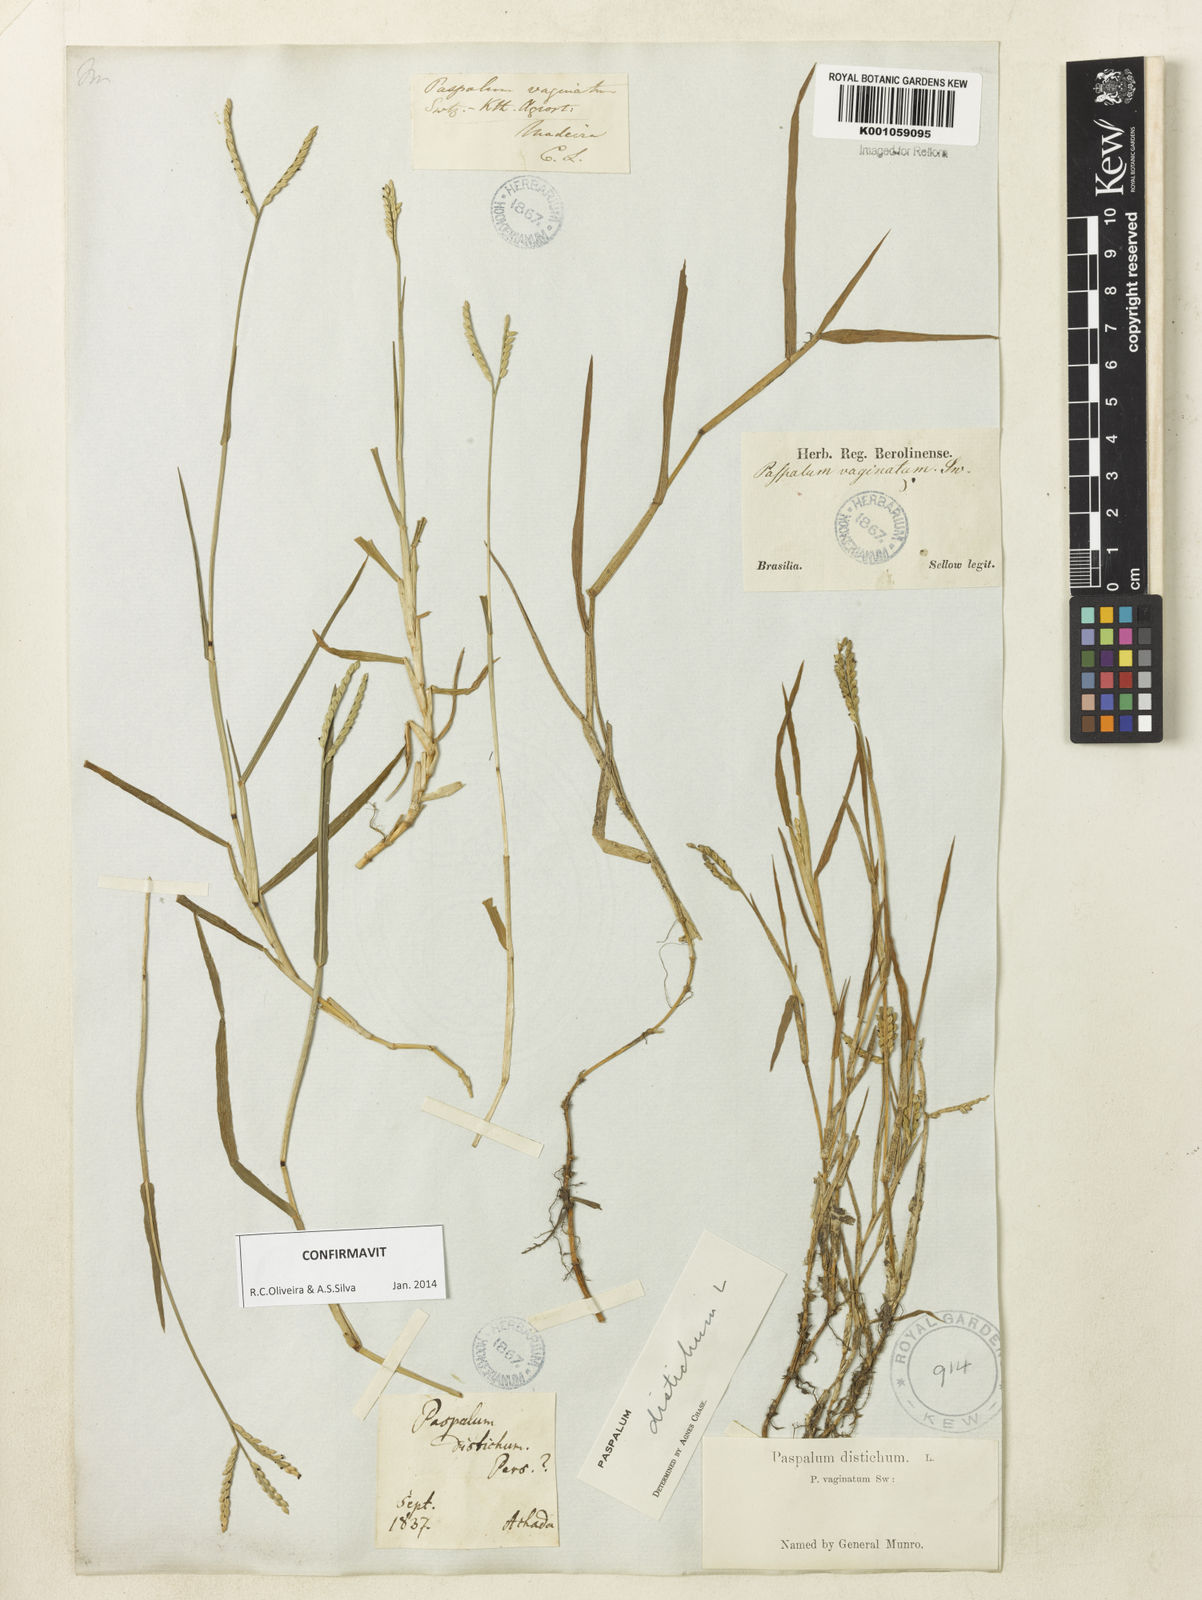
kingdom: Plantae
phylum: Tracheophyta
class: Liliopsida
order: Poales
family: Poaceae
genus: Paspalum
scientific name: Paspalum distichum
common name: Knotgrass
